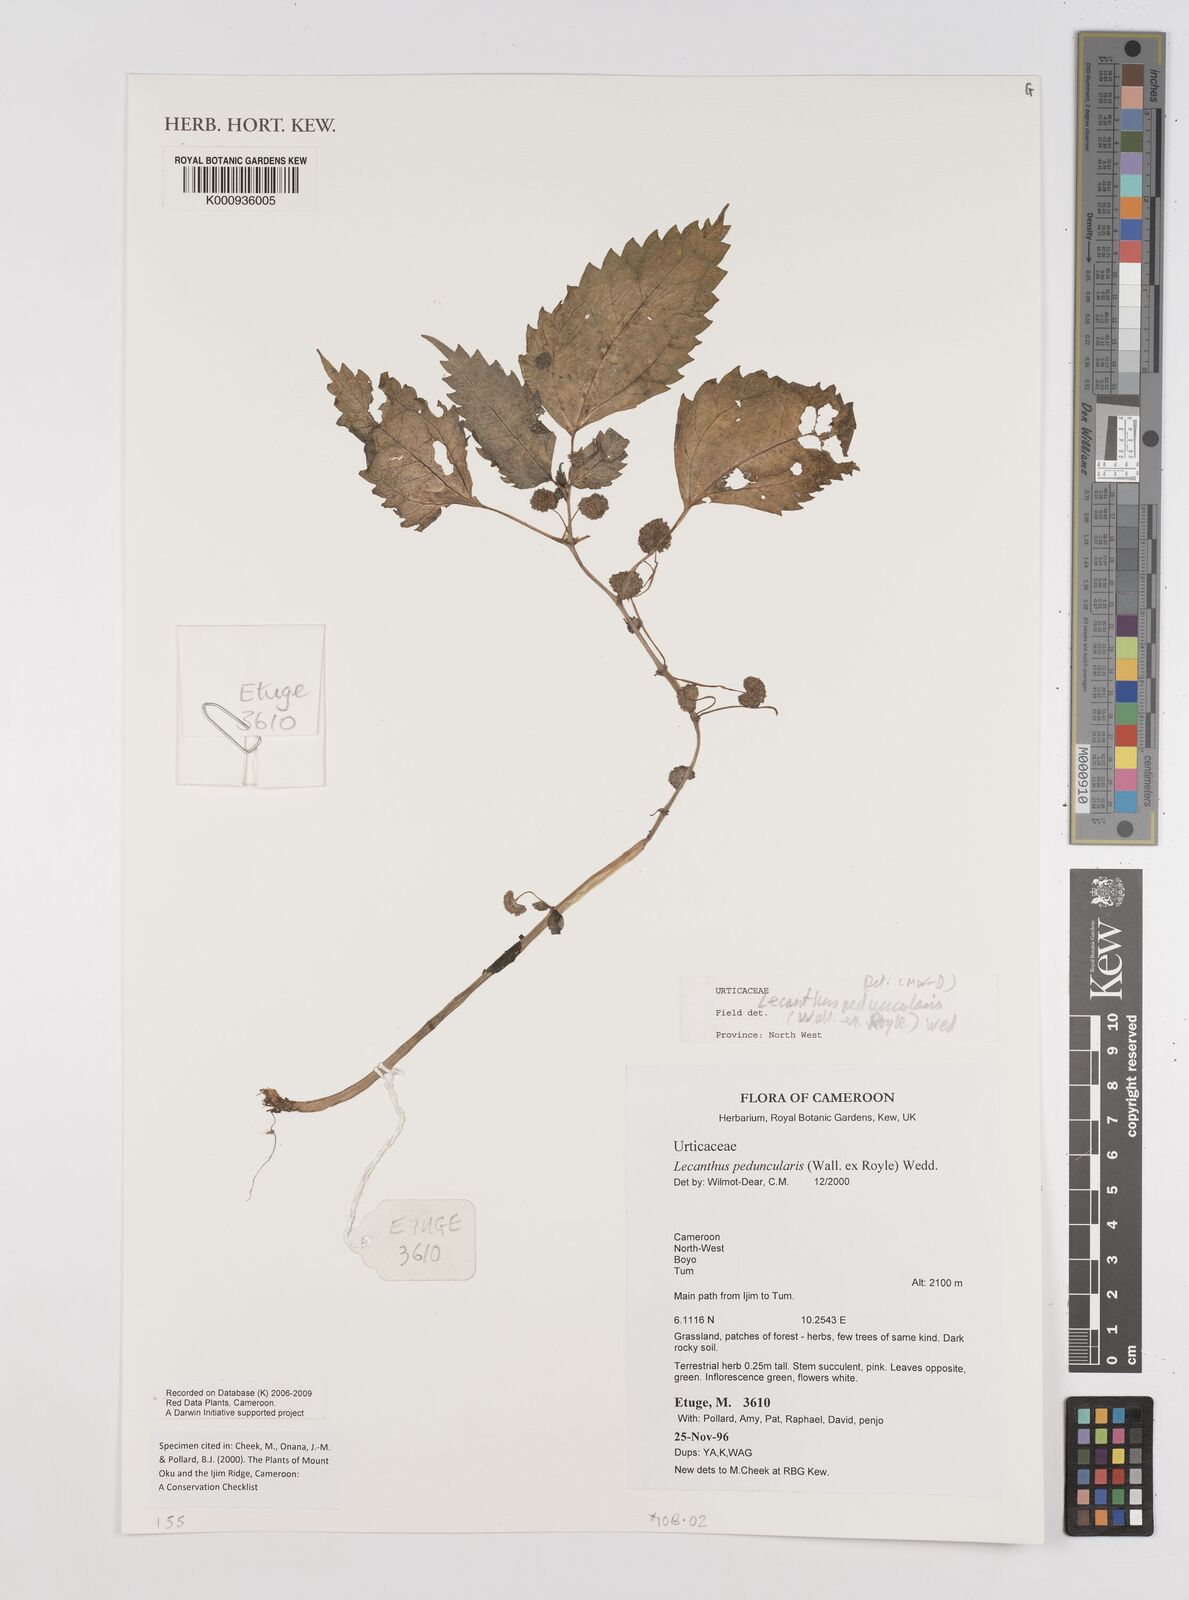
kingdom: Plantae
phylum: Tracheophyta
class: Magnoliopsida
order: Rosales
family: Urticaceae
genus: Lecanthus
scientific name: Lecanthus peduncularis
